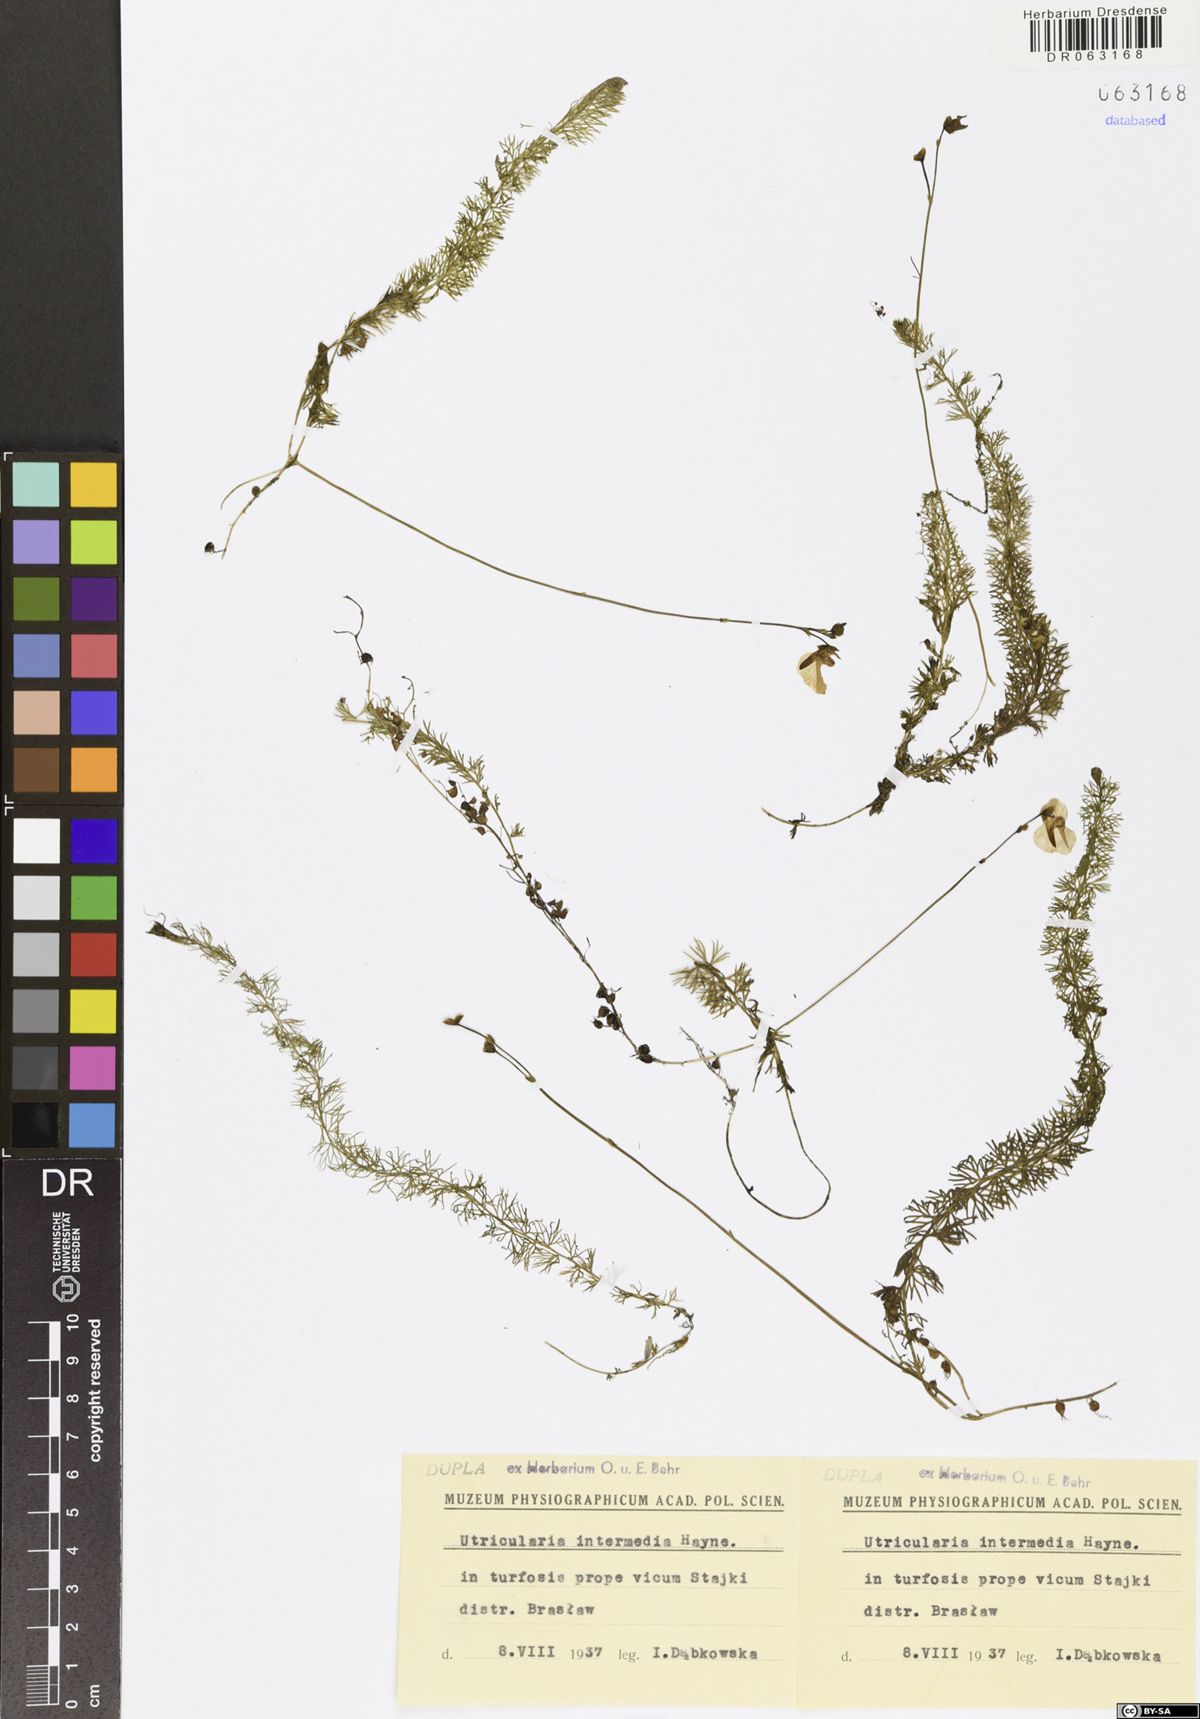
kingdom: Plantae
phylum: Tracheophyta
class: Magnoliopsida
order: Lamiales
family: Lentibulariaceae
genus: Utricularia
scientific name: Utricularia intermedia
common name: Intermediate bladderwort
